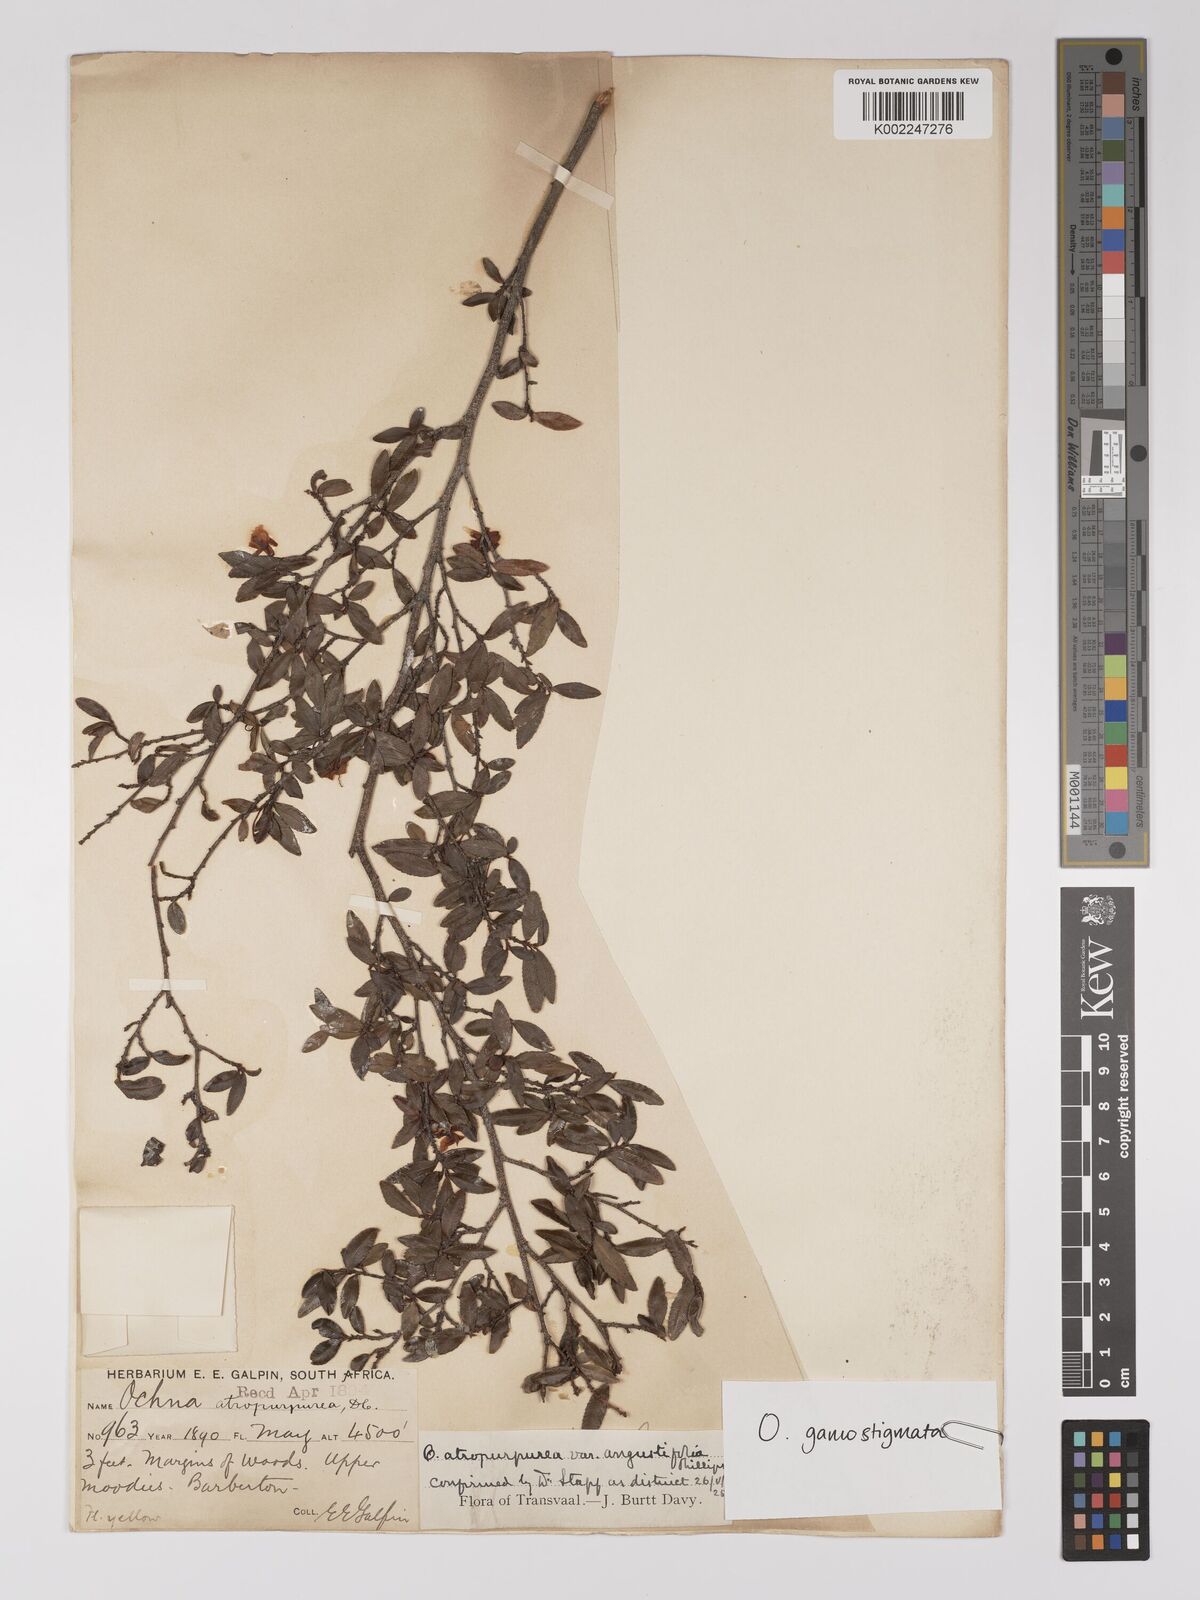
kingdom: Plantae
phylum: Tracheophyta
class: Magnoliopsida
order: Malpighiales
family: Ochnaceae
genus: Ochna
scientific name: Ochna gamostigmata
